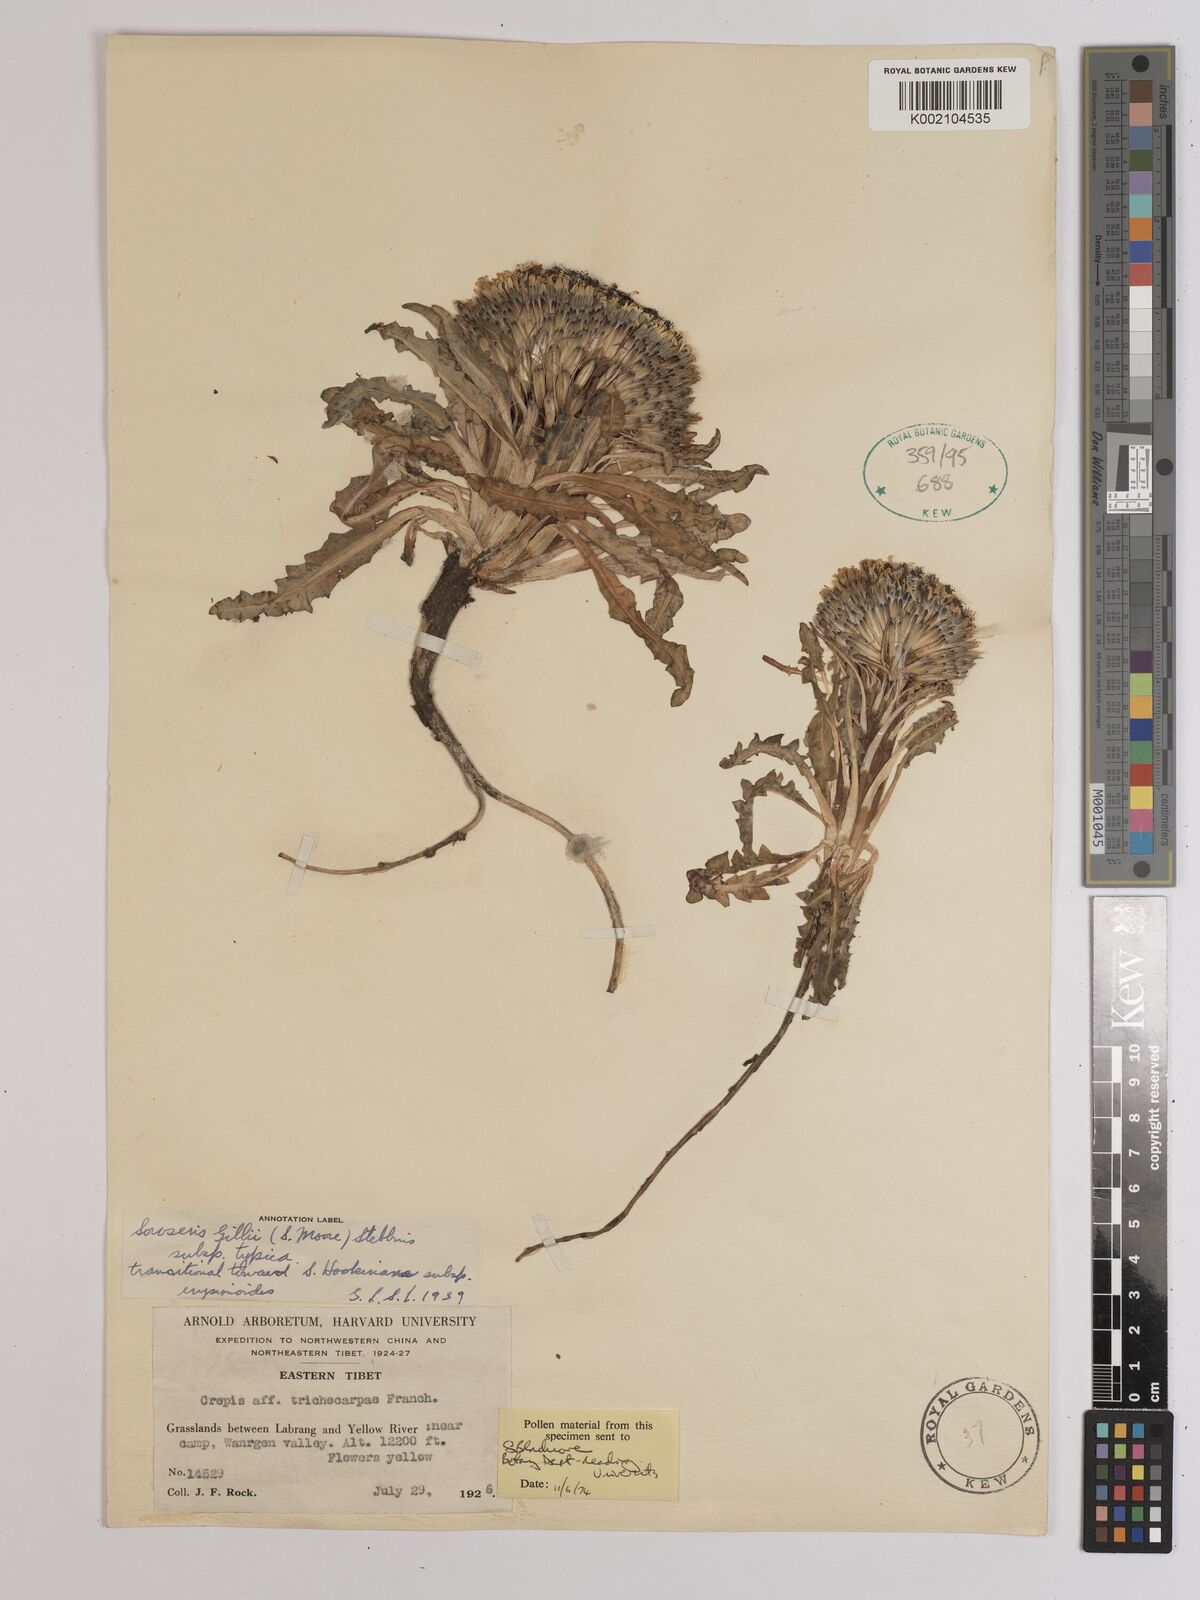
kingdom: Plantae
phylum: Tracheophyta
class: Magnoliopsida
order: Asterales
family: Asteraceae
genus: Soroseris
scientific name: Soroseris hookeriana
